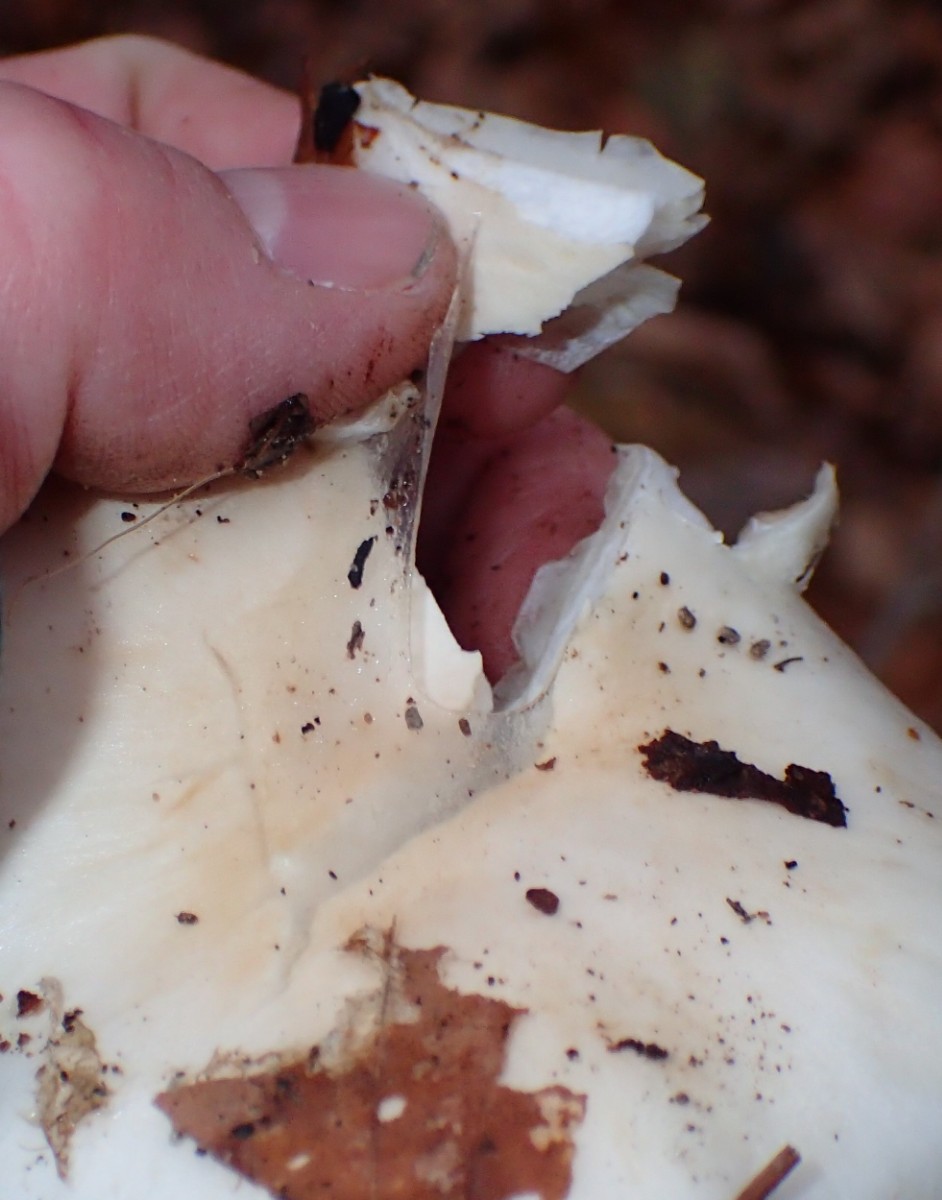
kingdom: Fungi
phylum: Basidiomycota
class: Agaricomycetes
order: Agaricales
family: Strophariaceae
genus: Pholiota
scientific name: Pholiota lenta
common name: løv-skælhat
